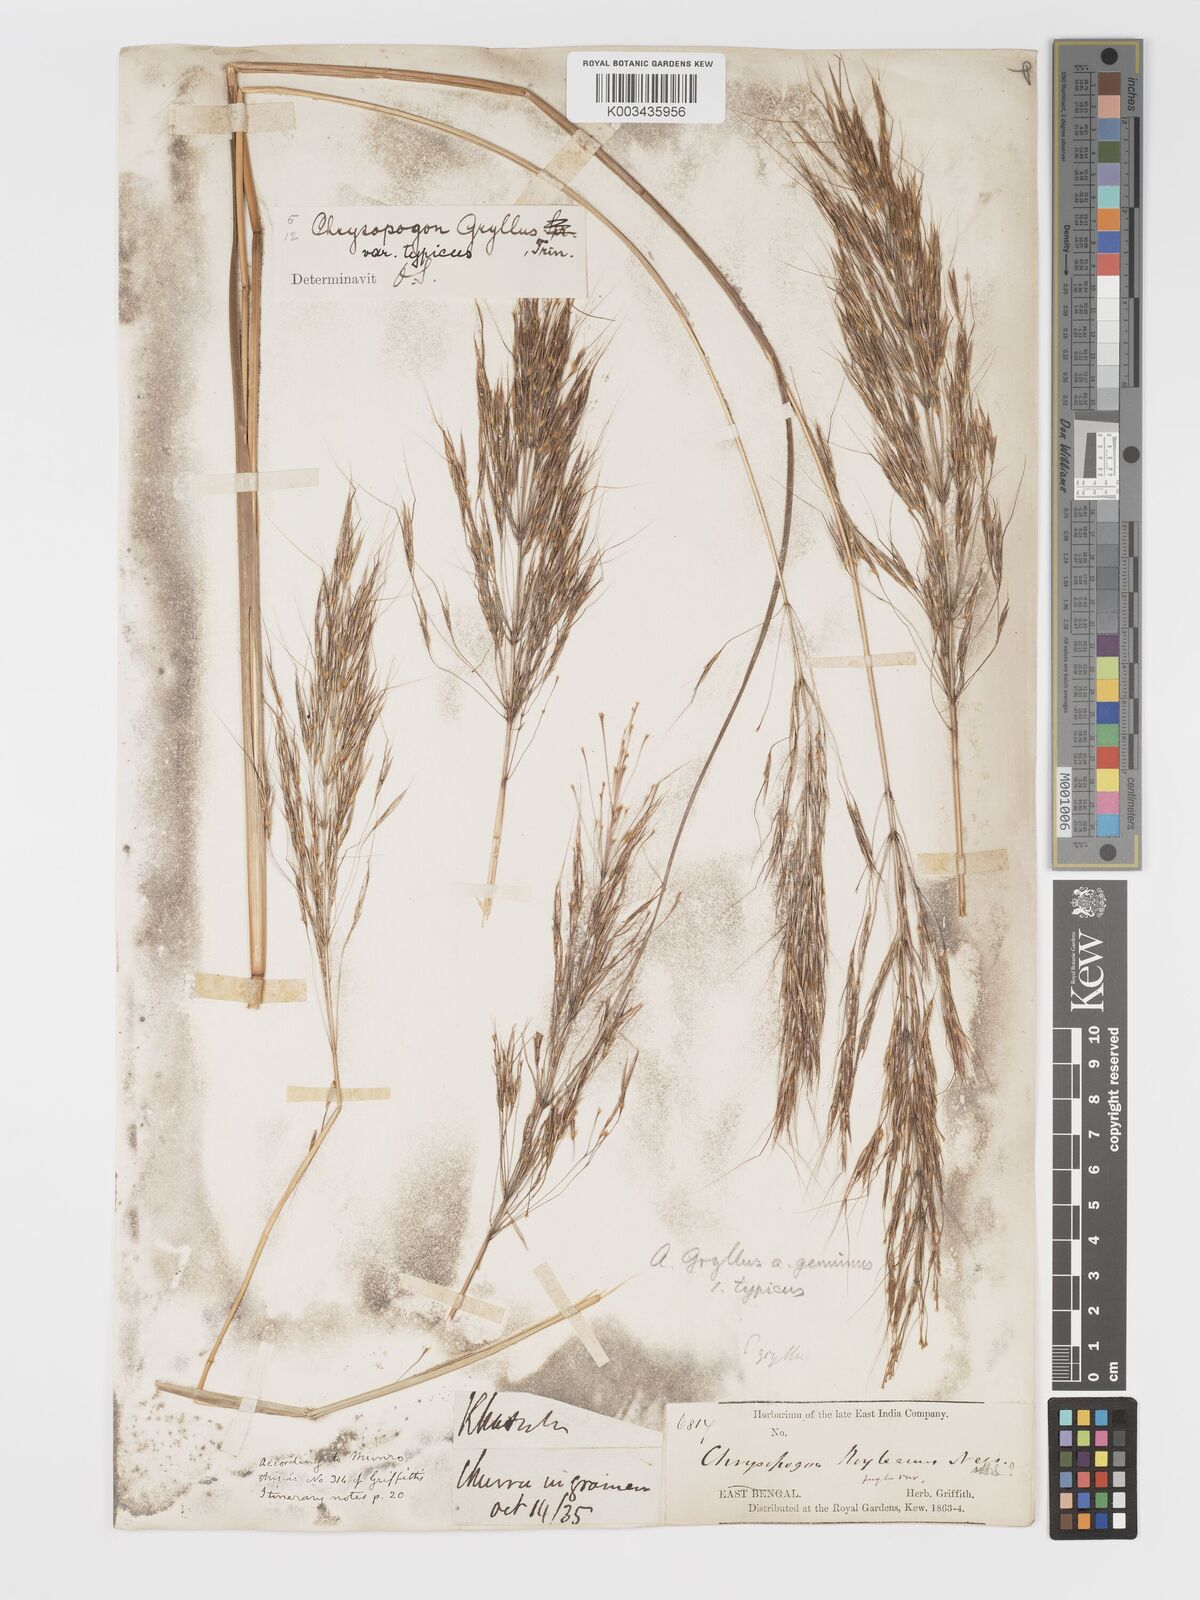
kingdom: Plantae
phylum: Tracheophyta
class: Liliopsida
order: Poales
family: Poaceae
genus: Chrysopogon
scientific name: Chrysopogon gryllus
